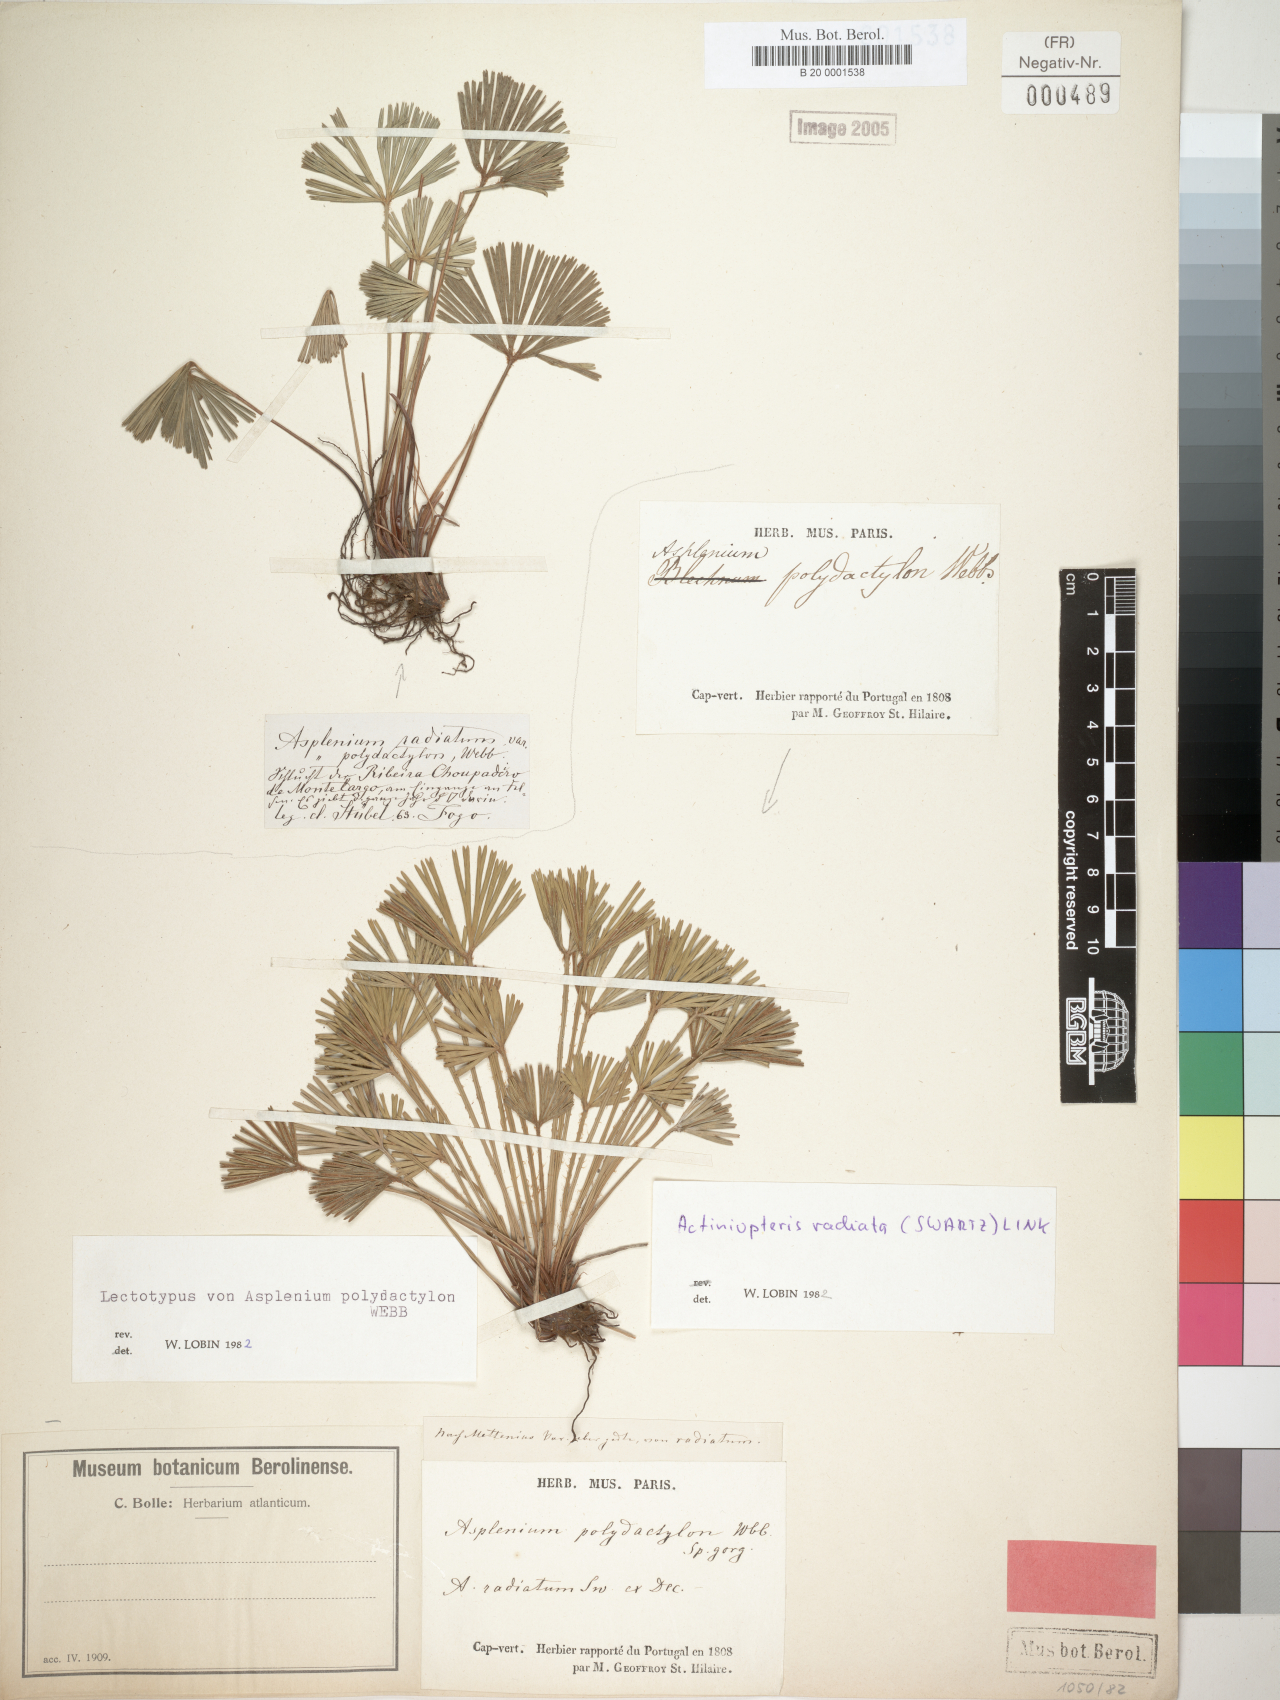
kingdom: Plantae
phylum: Tracheophyta
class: Polypodiopsida
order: Polypodiales
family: Pteridaceae
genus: Actiniopteris
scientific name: Actiniopteris radiata
